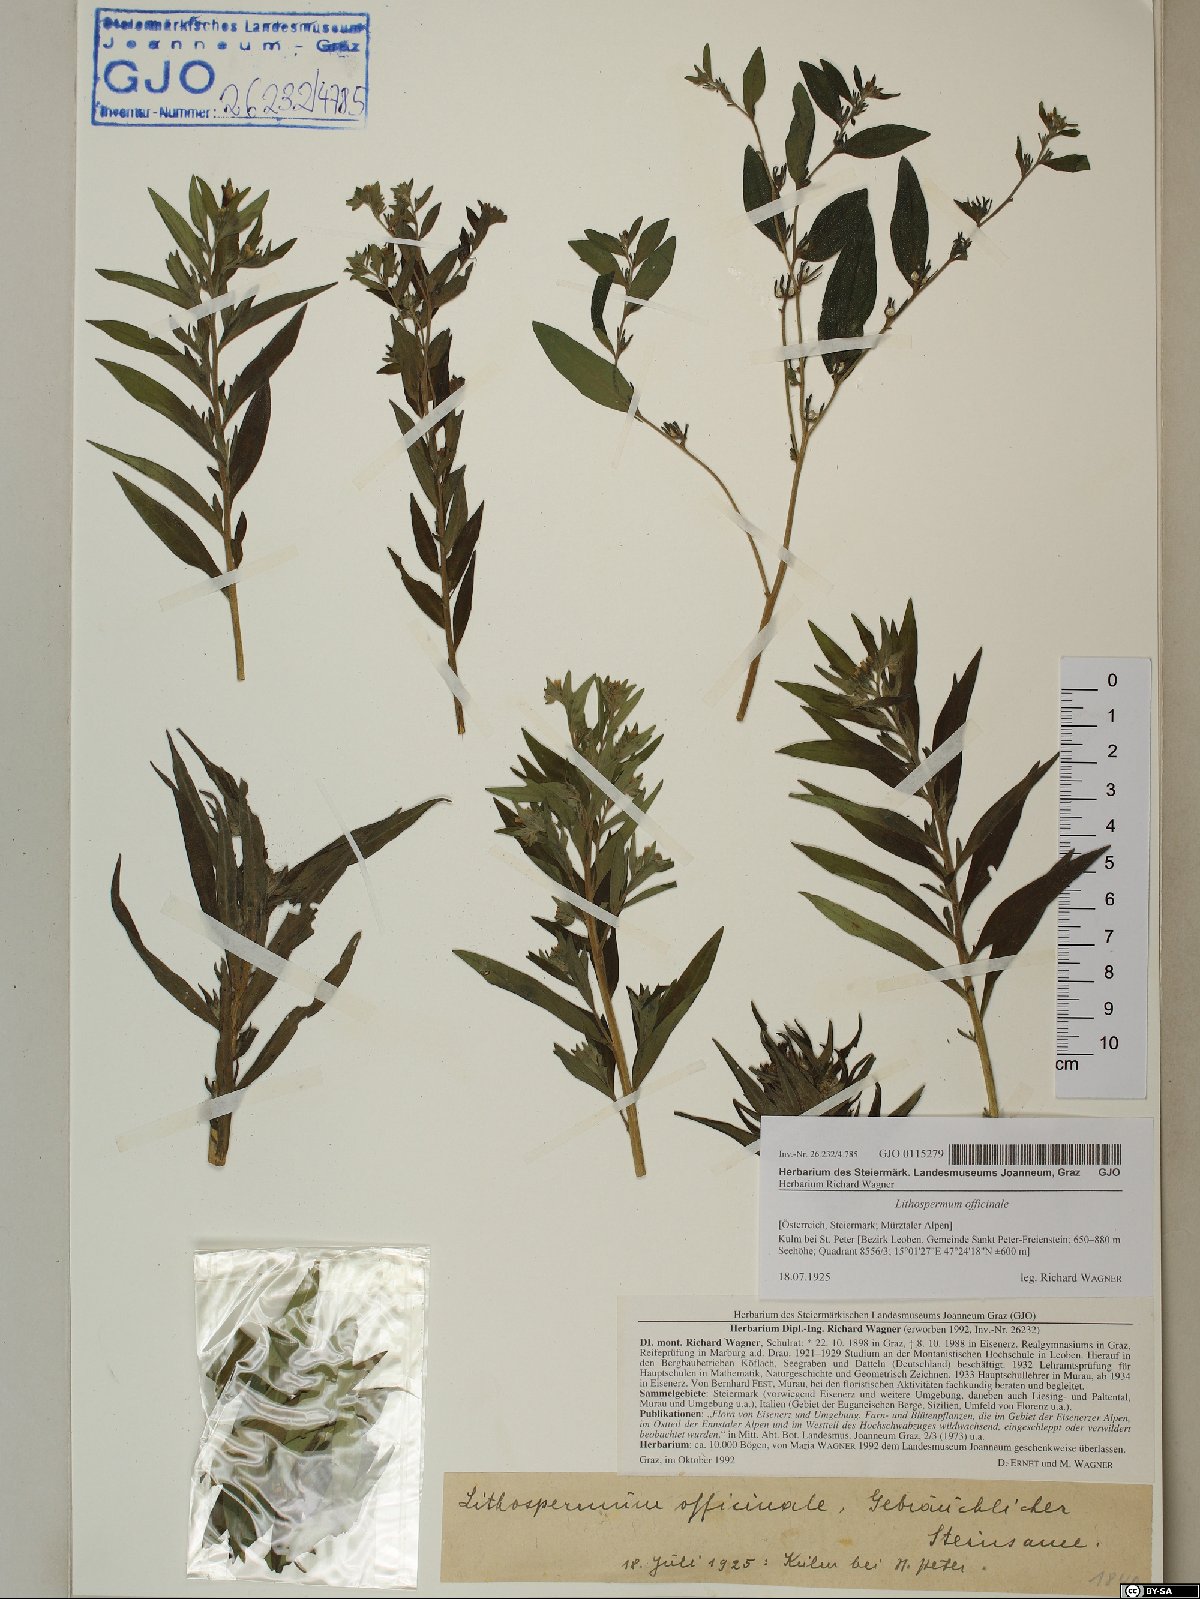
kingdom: Plantae
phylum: Tracheophyta
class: Magnoliopsida
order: Boraginales
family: Boraginaceae
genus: Lithospermum
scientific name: Lithospermum officinale
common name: Common gromwell
